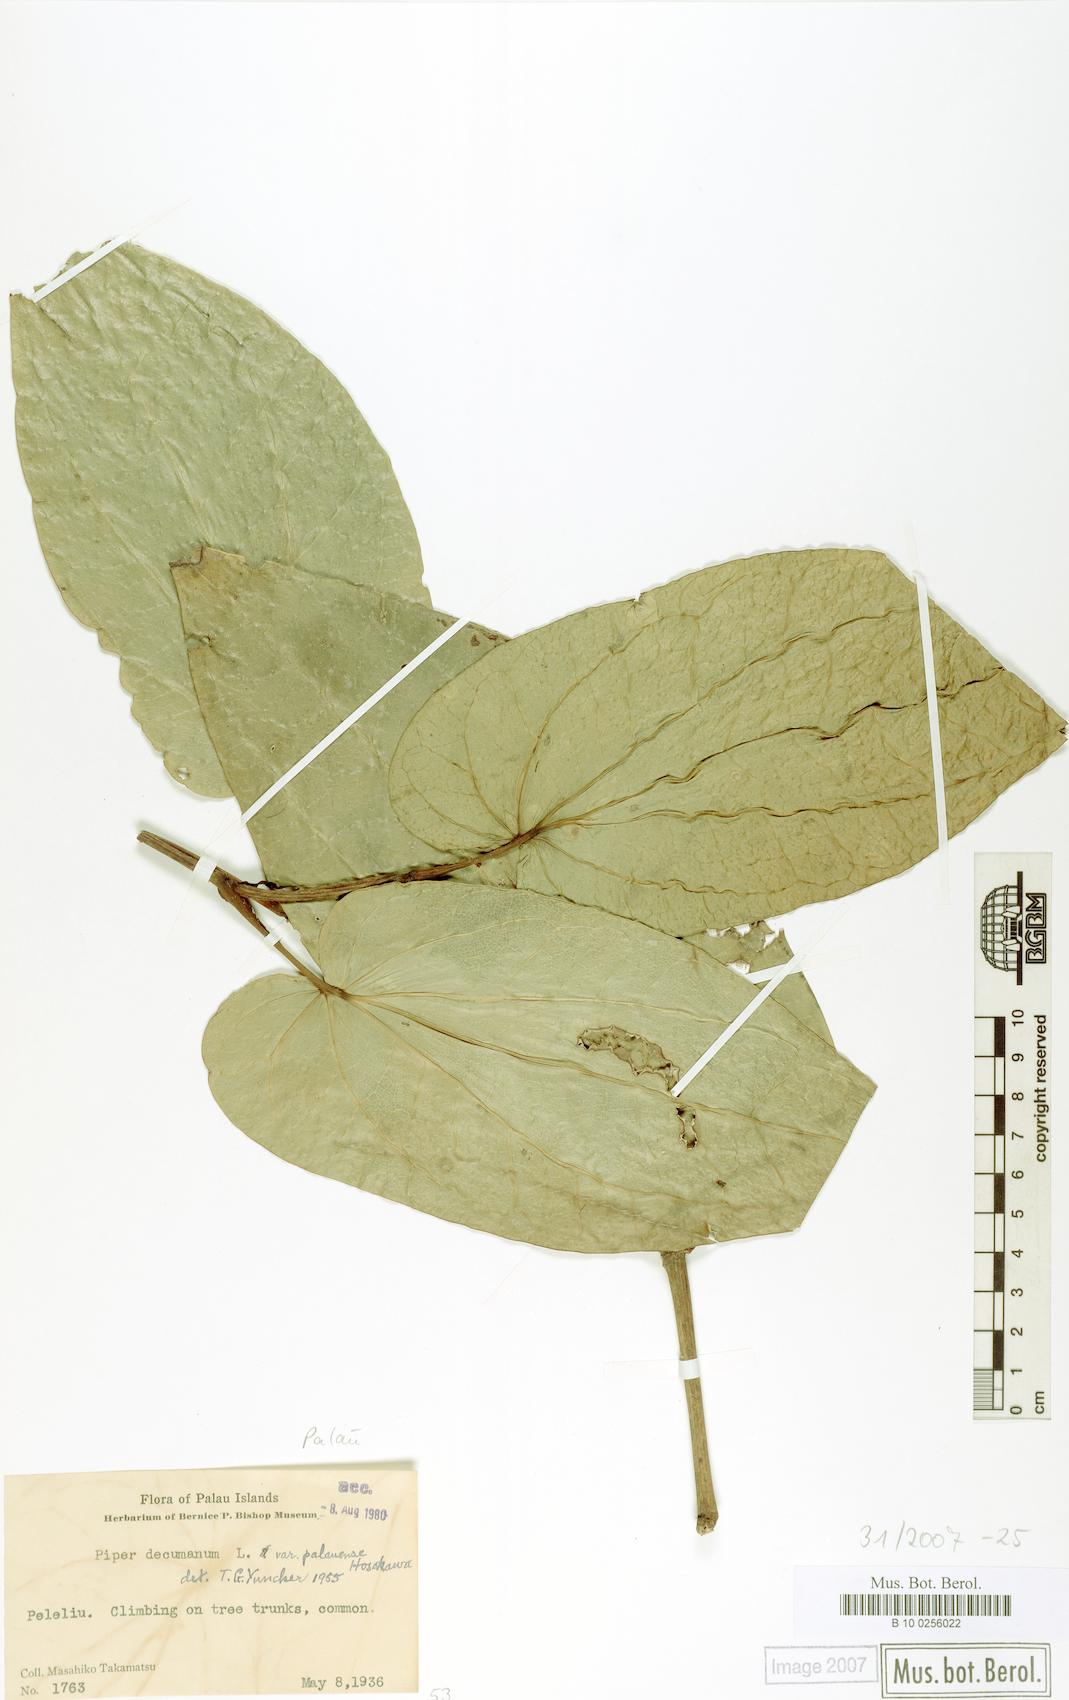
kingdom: Plantae
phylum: Tracheophyta
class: Magnoliopsida
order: Piperales
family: Piperaceae
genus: Piper
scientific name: Piper hosokawae
